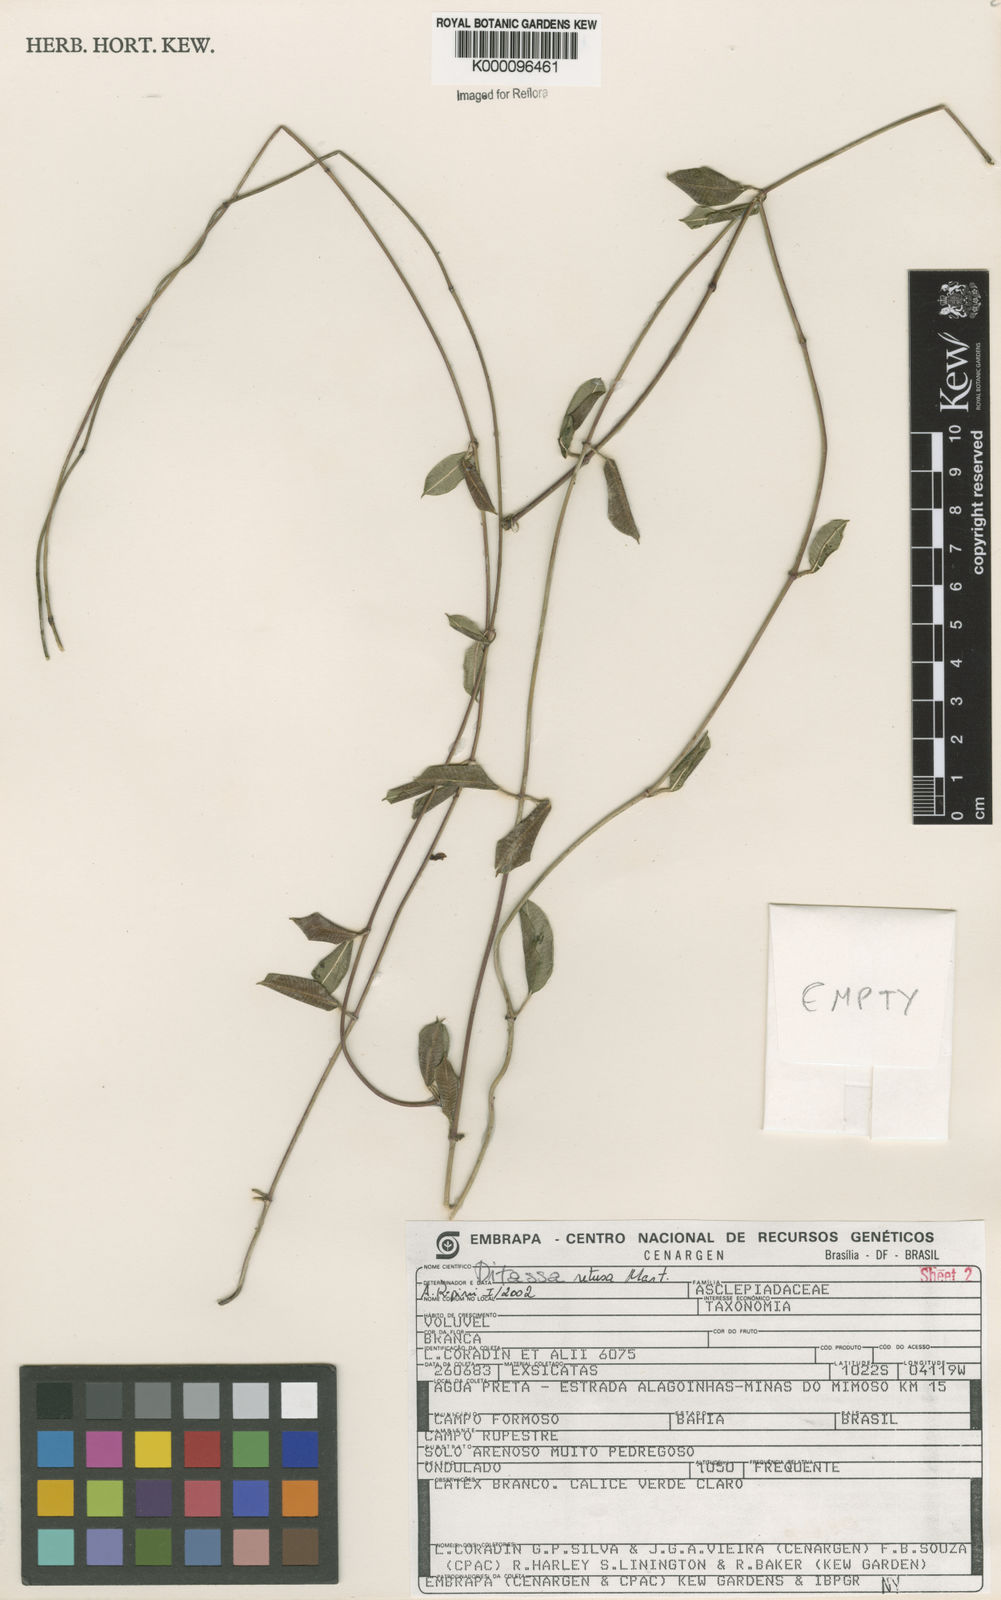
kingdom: Plantae
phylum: Tracheophyta
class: Magnoliopsida
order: Gentianales
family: Apocynaceae
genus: Ditassa
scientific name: Ditassa retusa
